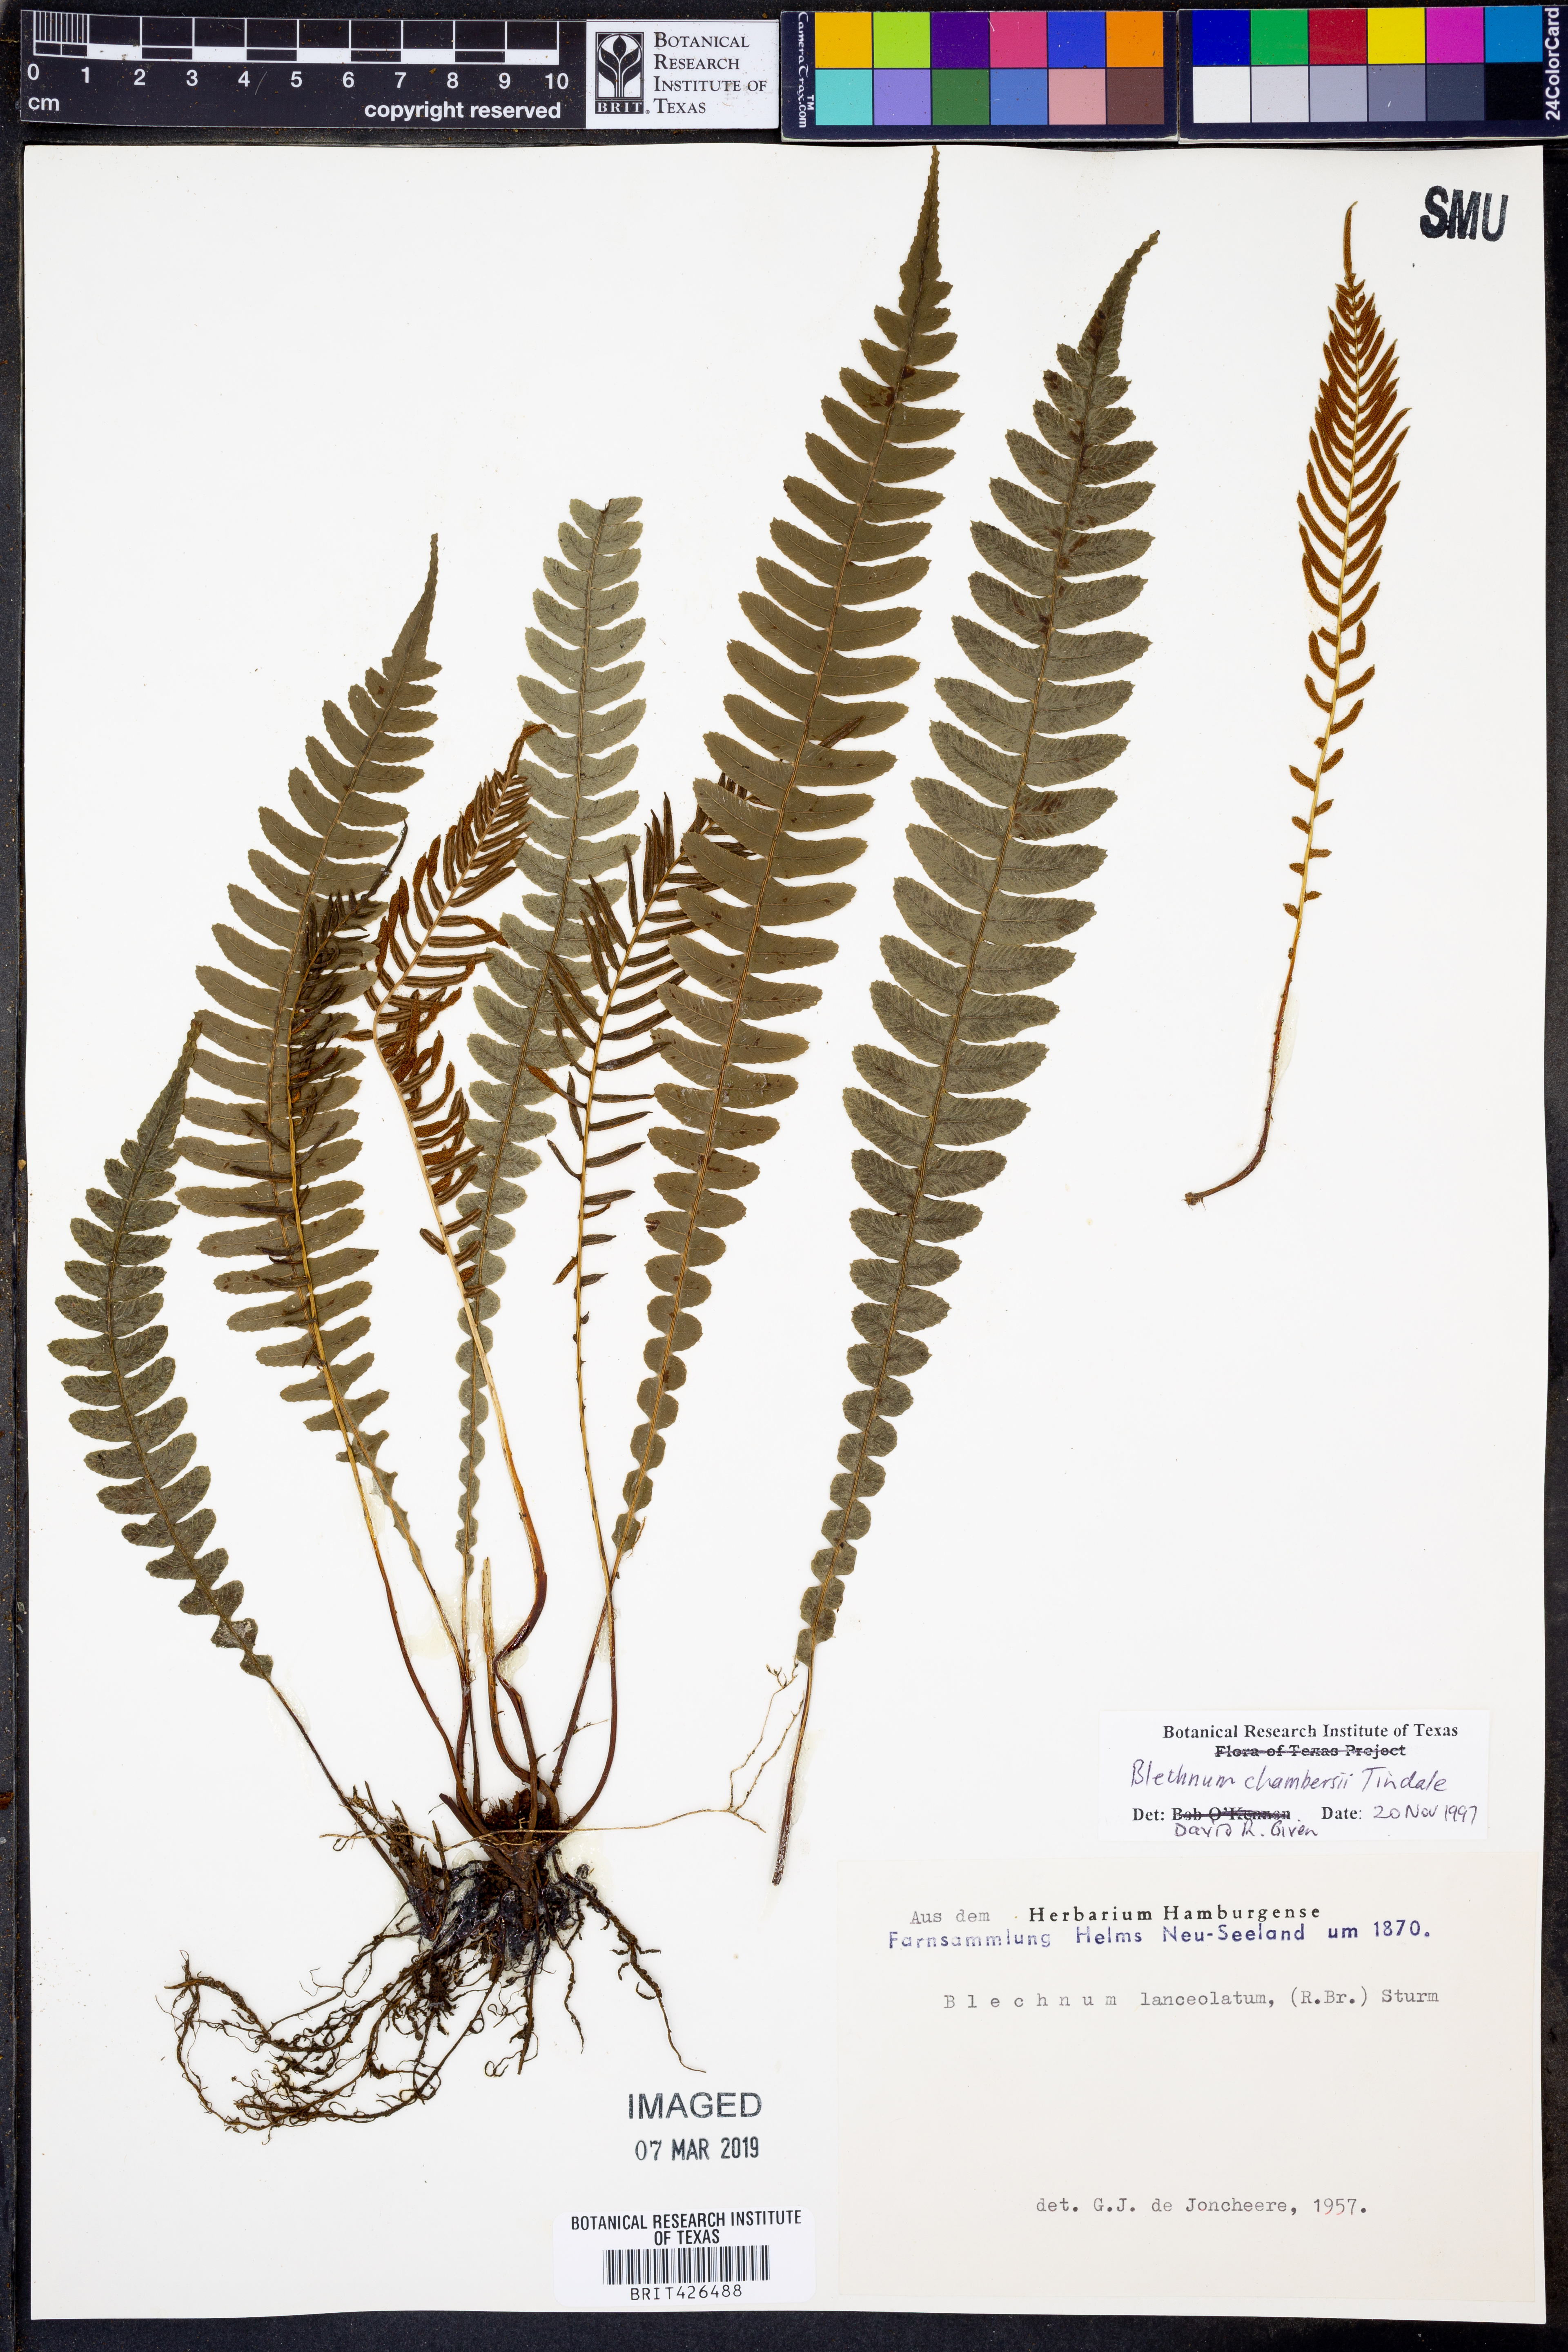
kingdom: Plantae
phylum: Tracheophyta
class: Polypodiopsida
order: Polypodiales
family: Blechnaceae
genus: Austroblechnum
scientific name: Austroblechnum lanceolatum
